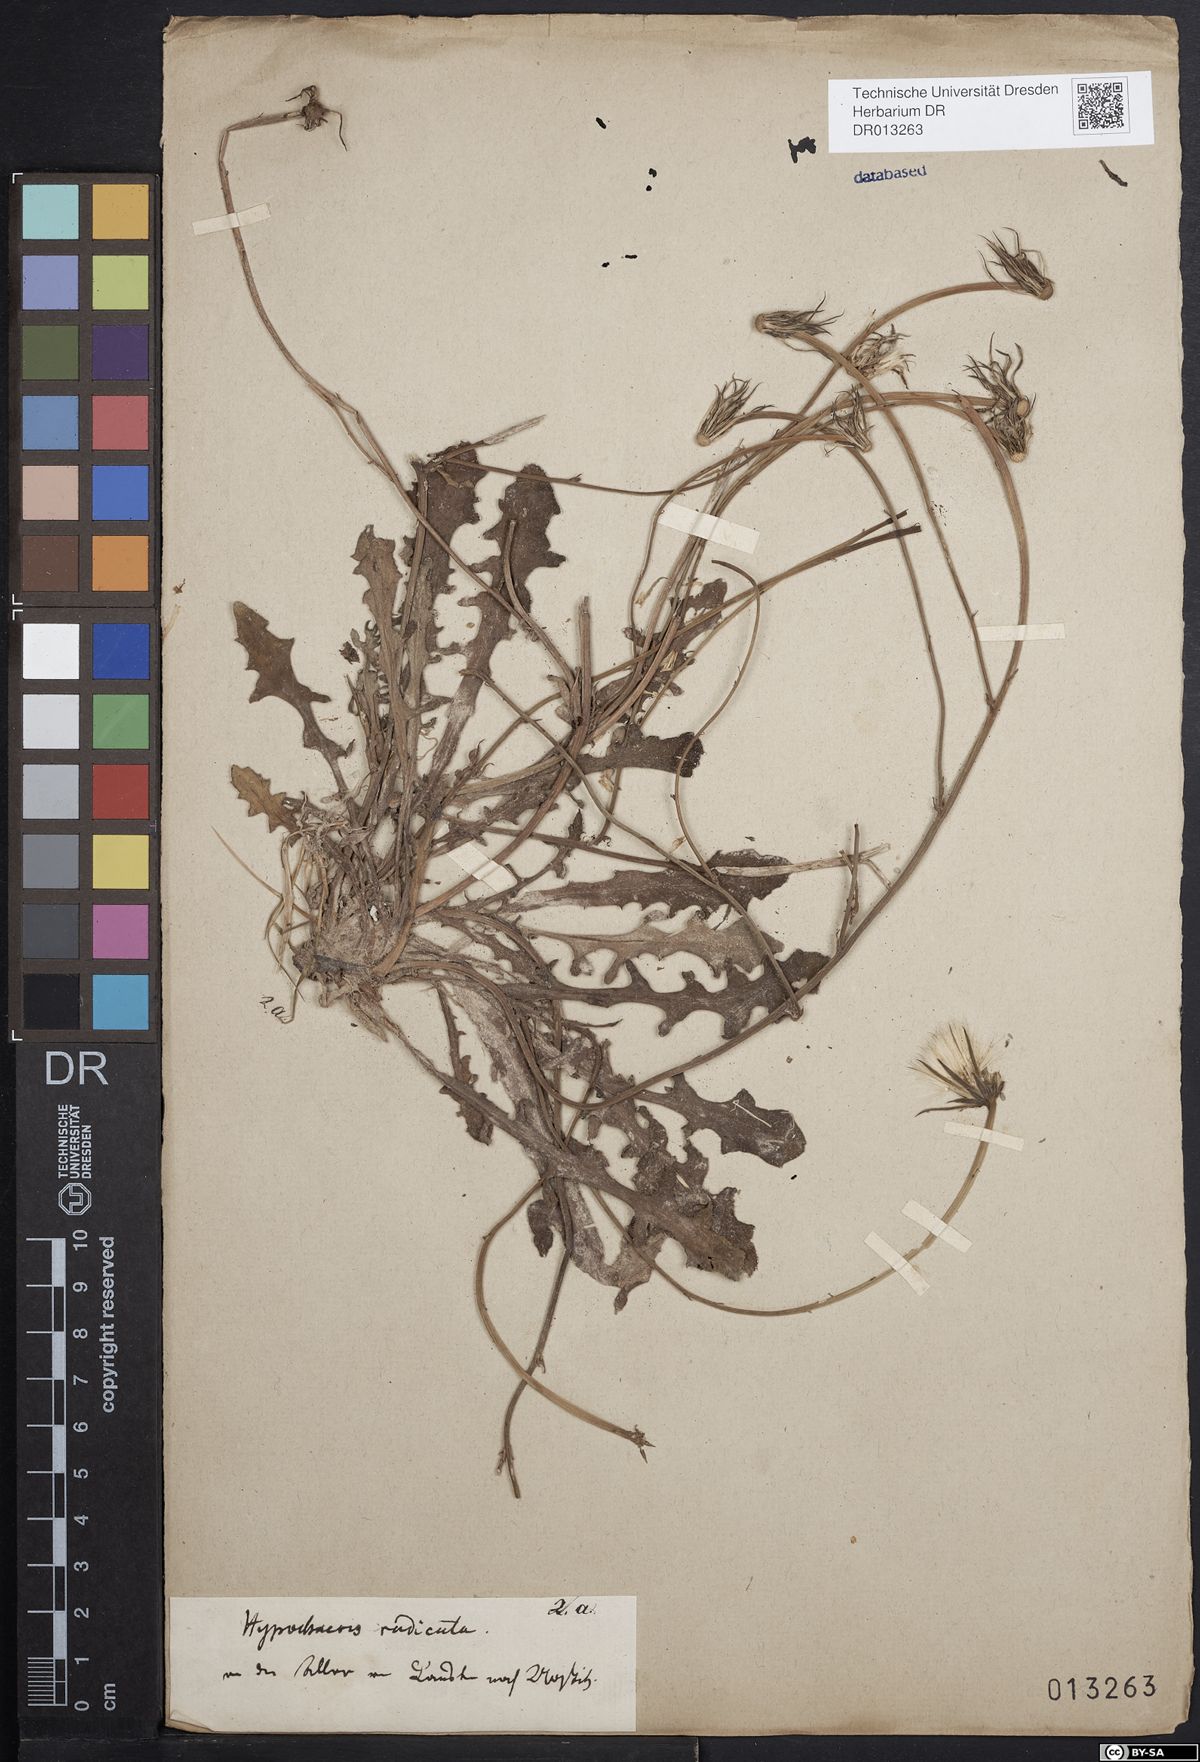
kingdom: Plantae
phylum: Tracheophyta
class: Magnoliopsida
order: Asterales
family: Asteraceae
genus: Hypochaeris
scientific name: Hypochaeris radicata
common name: Flatweed
